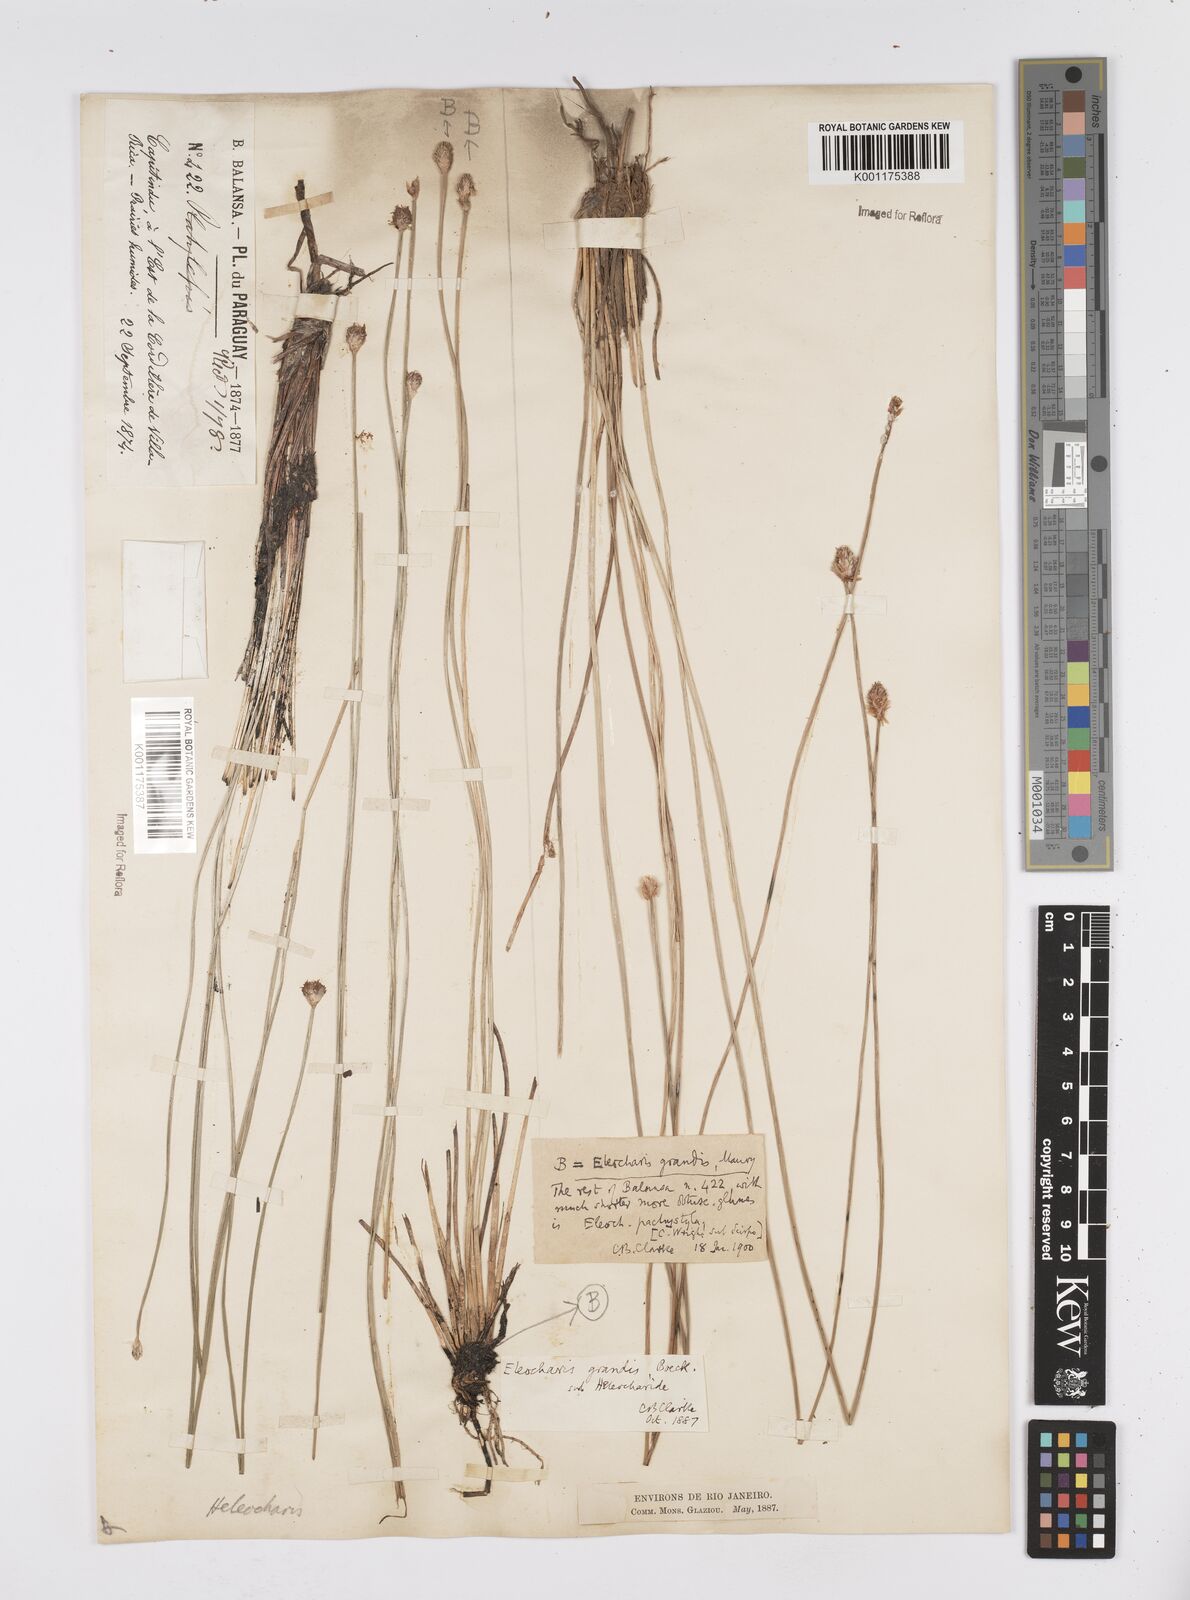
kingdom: Plantae
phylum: Tracheophyta
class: Liliopsida
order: Poales
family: Cyperaceae
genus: Eleocharis
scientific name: Eleocharis nudipes
